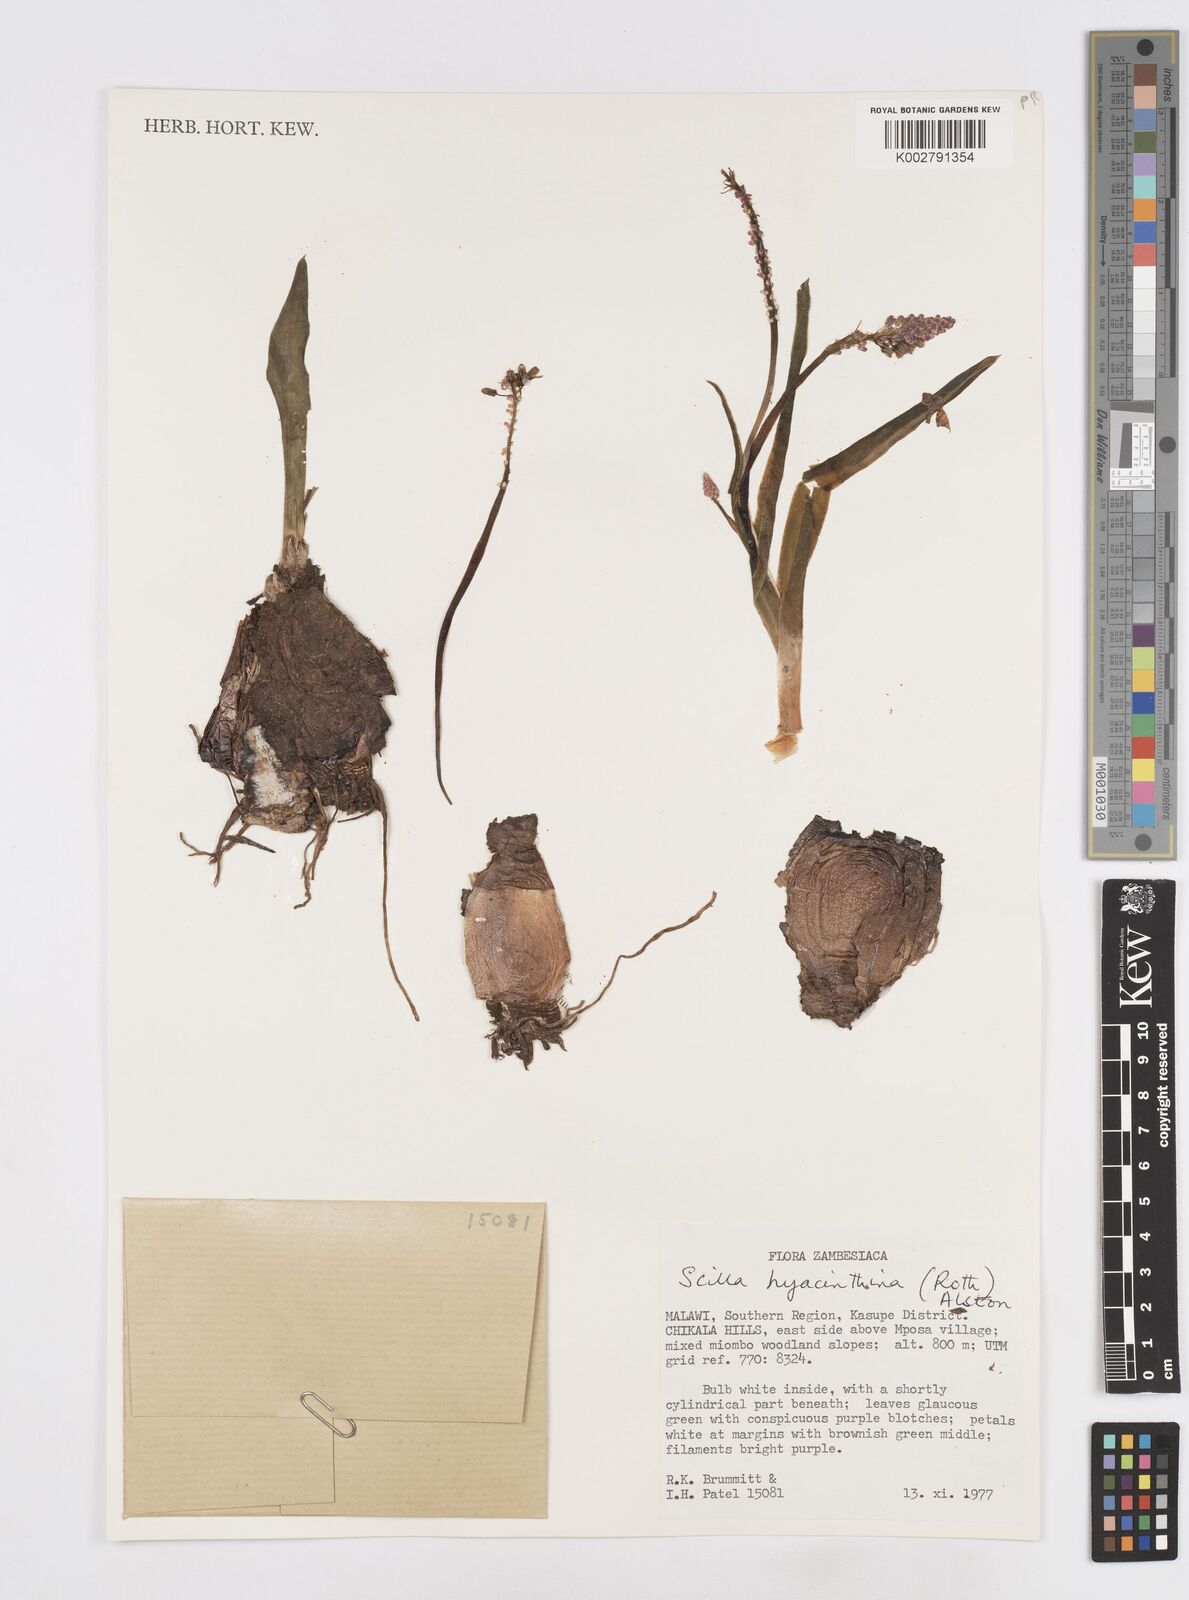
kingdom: Plantae
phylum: Tracheophyta
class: Liliopsida
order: Asparagales
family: Asparagaceae
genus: Ledebouria
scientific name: Ledebouria revoluta
